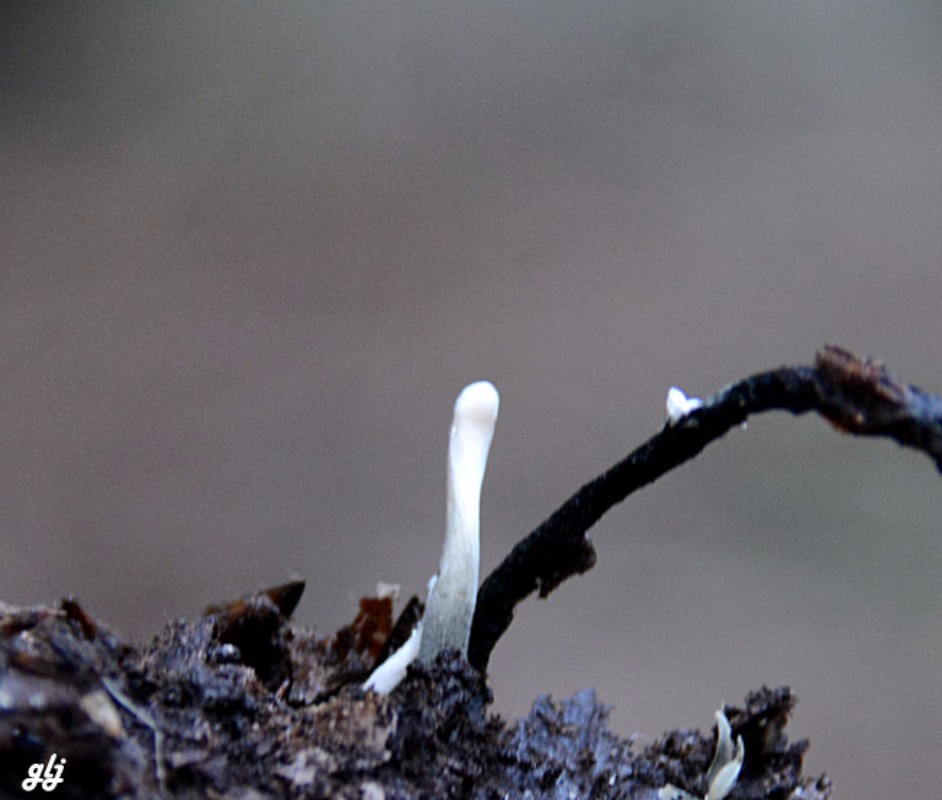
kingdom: Fungi
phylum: Ascomycota
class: Sordariomycetes
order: Xylariales
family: Xylariaceae
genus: Xylaria
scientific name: Xylaria hypoxylon
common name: grenet stødsvamp
